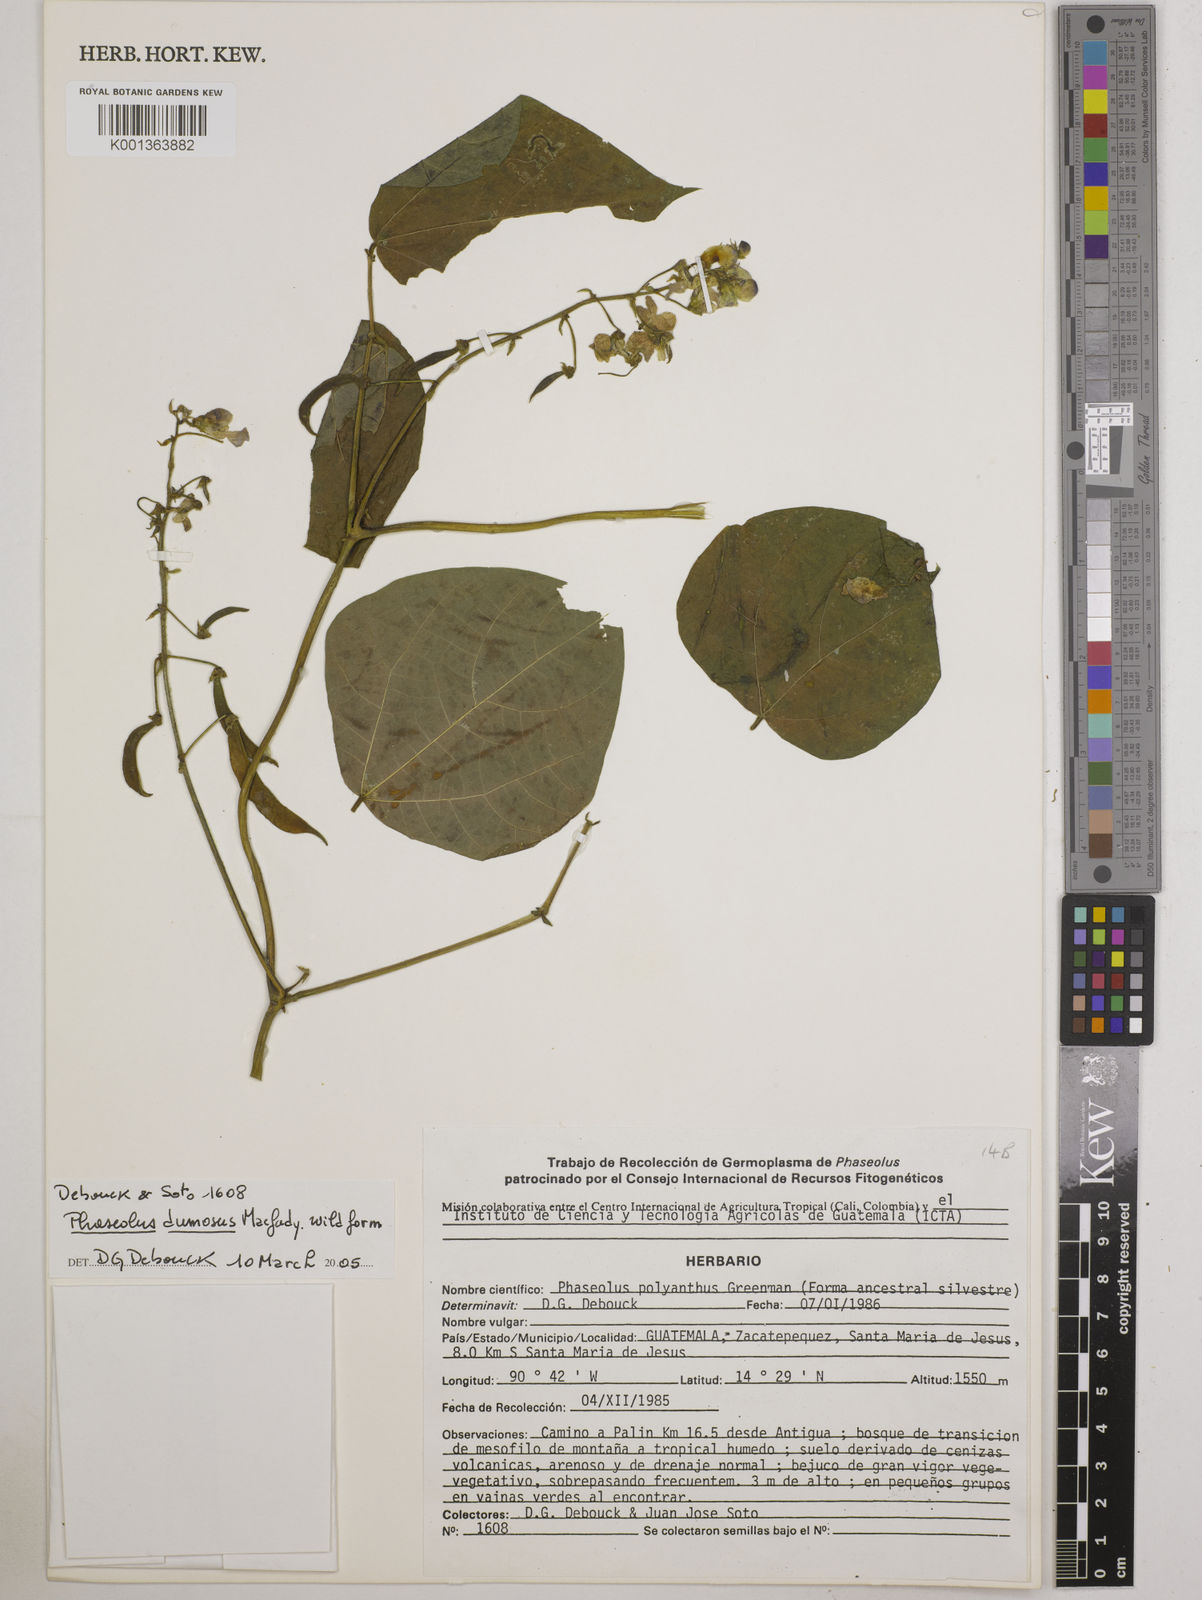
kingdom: Plantae
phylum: Tracheophyta
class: Magnoliopsida
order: Fabales
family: Fabaceae
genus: Phaseolus
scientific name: Phaseolus dumosus
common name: Year bean
